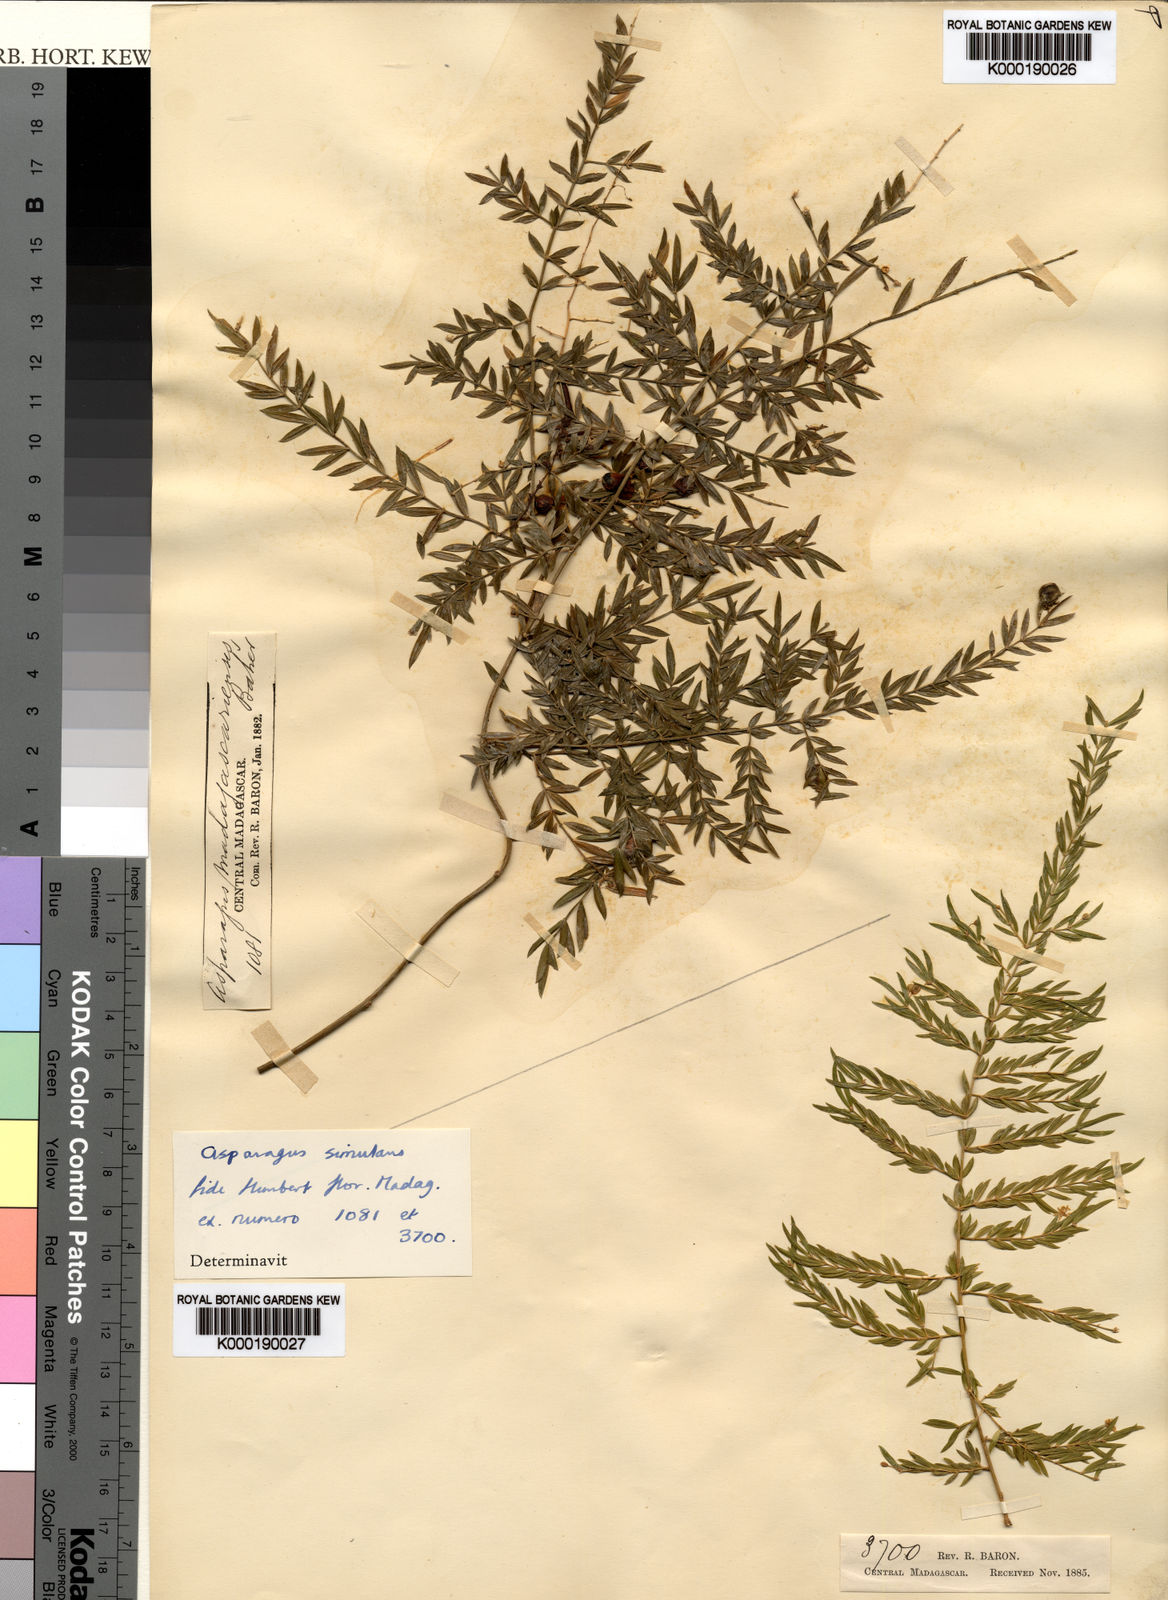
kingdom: Plantae
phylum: Tracheophyta
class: Liliopsida
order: Asparagales
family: Asparagaceae
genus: Asparagus
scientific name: Asparagus simulans
